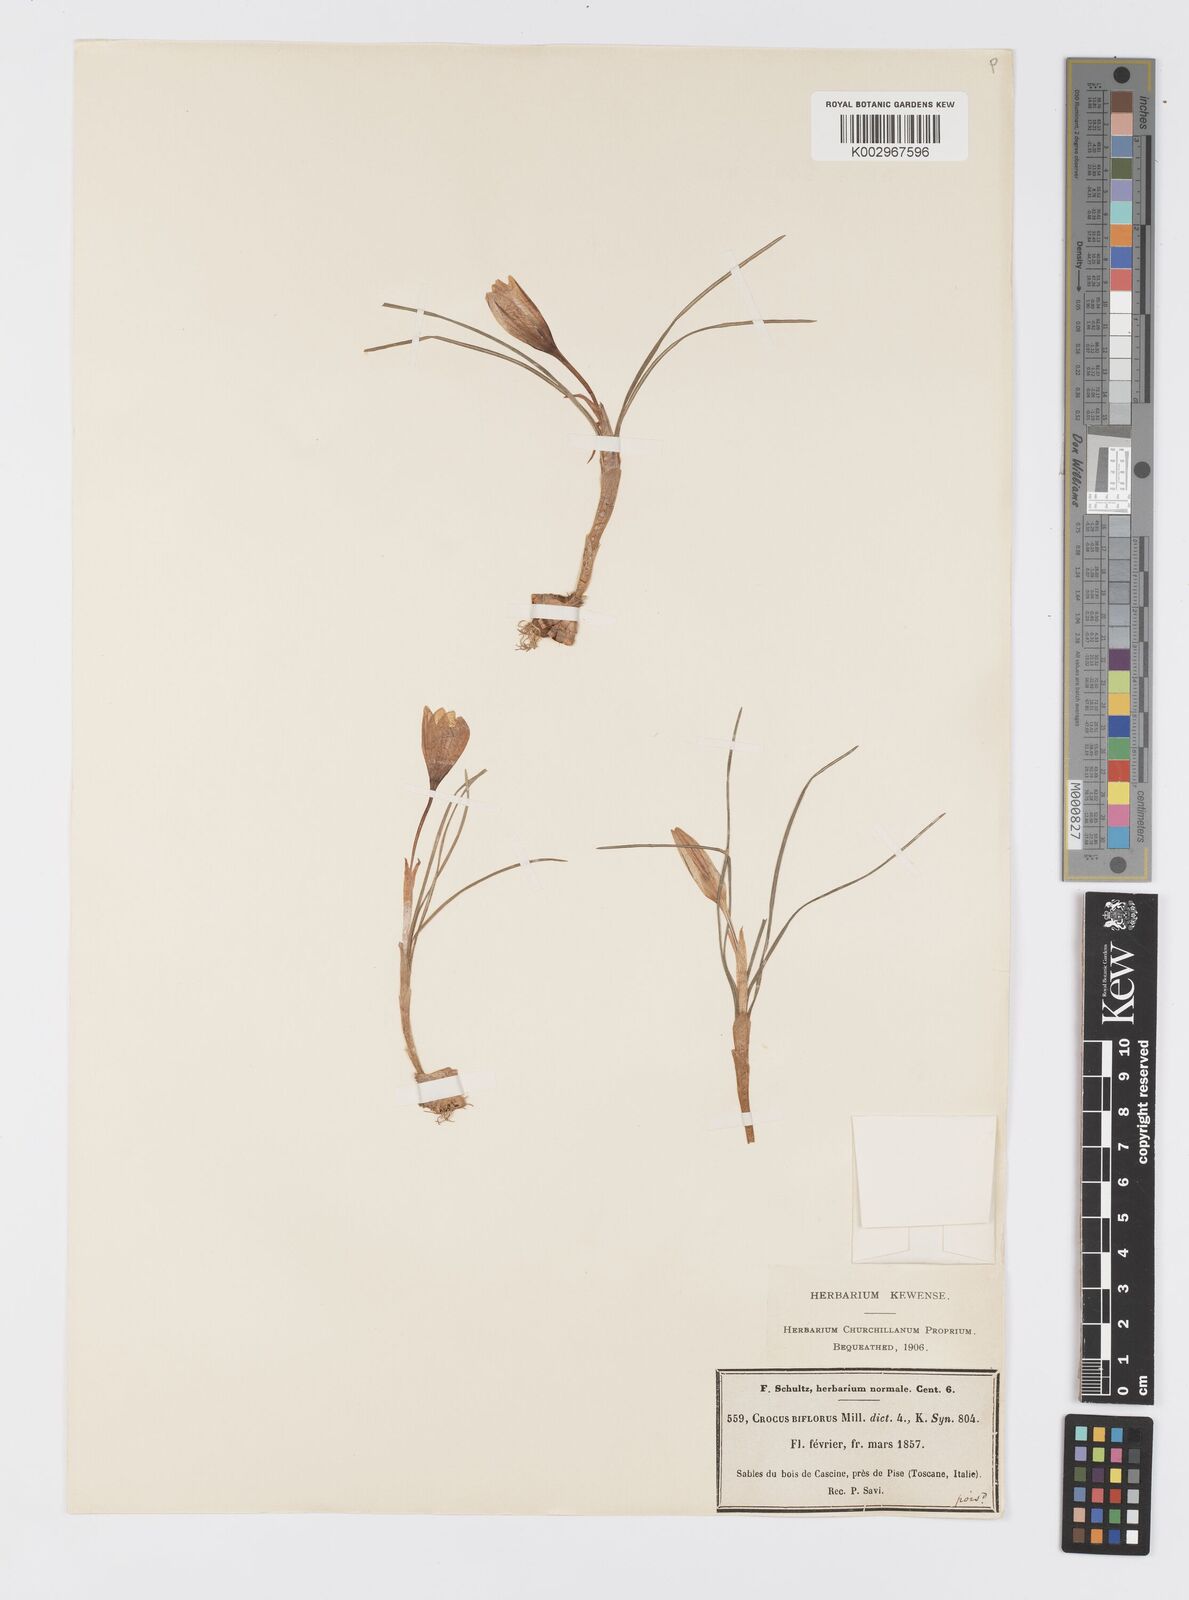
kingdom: Plantae
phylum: Tracheophyta
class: Liliopsida
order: Asparagales
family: Iridaceae
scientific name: Iridaceae
